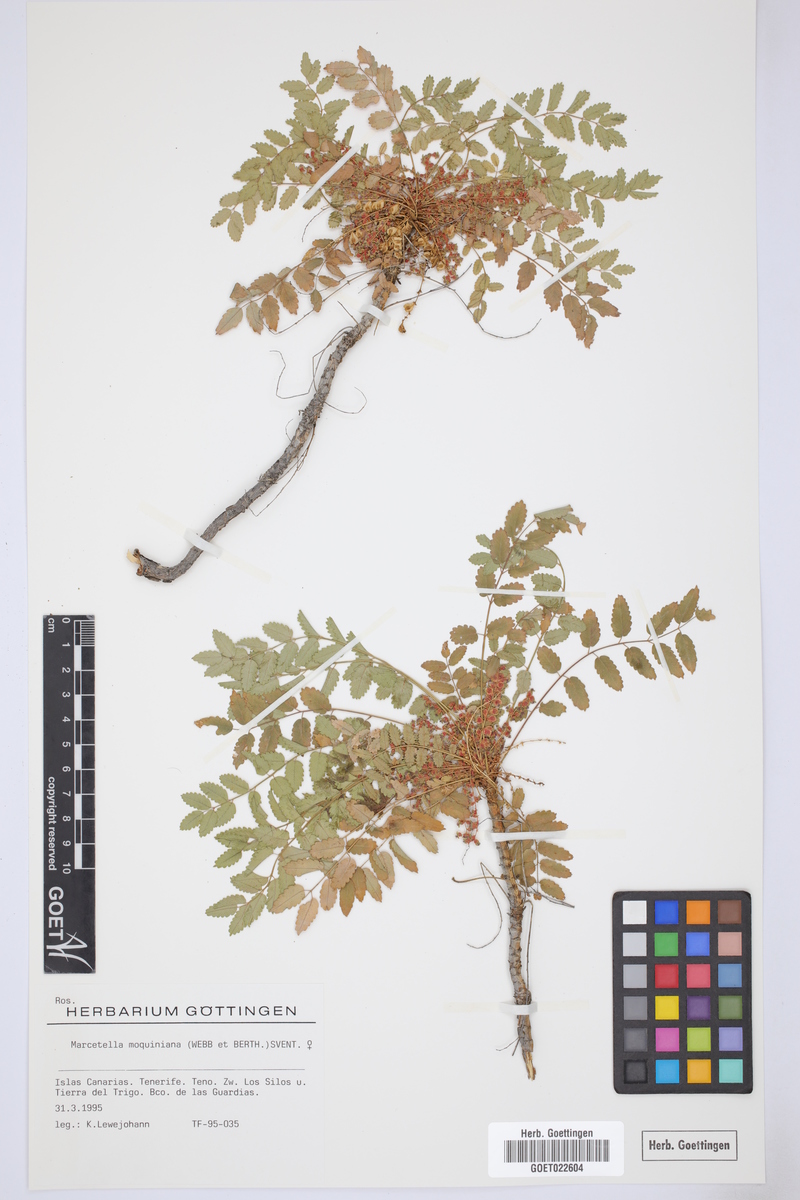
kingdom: Plantae
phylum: Tracheophyta
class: Magnoliopsida
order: Rosales
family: Rosaceae
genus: Marcetella
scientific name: Marcetella moquiniana
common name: Burnet tree
